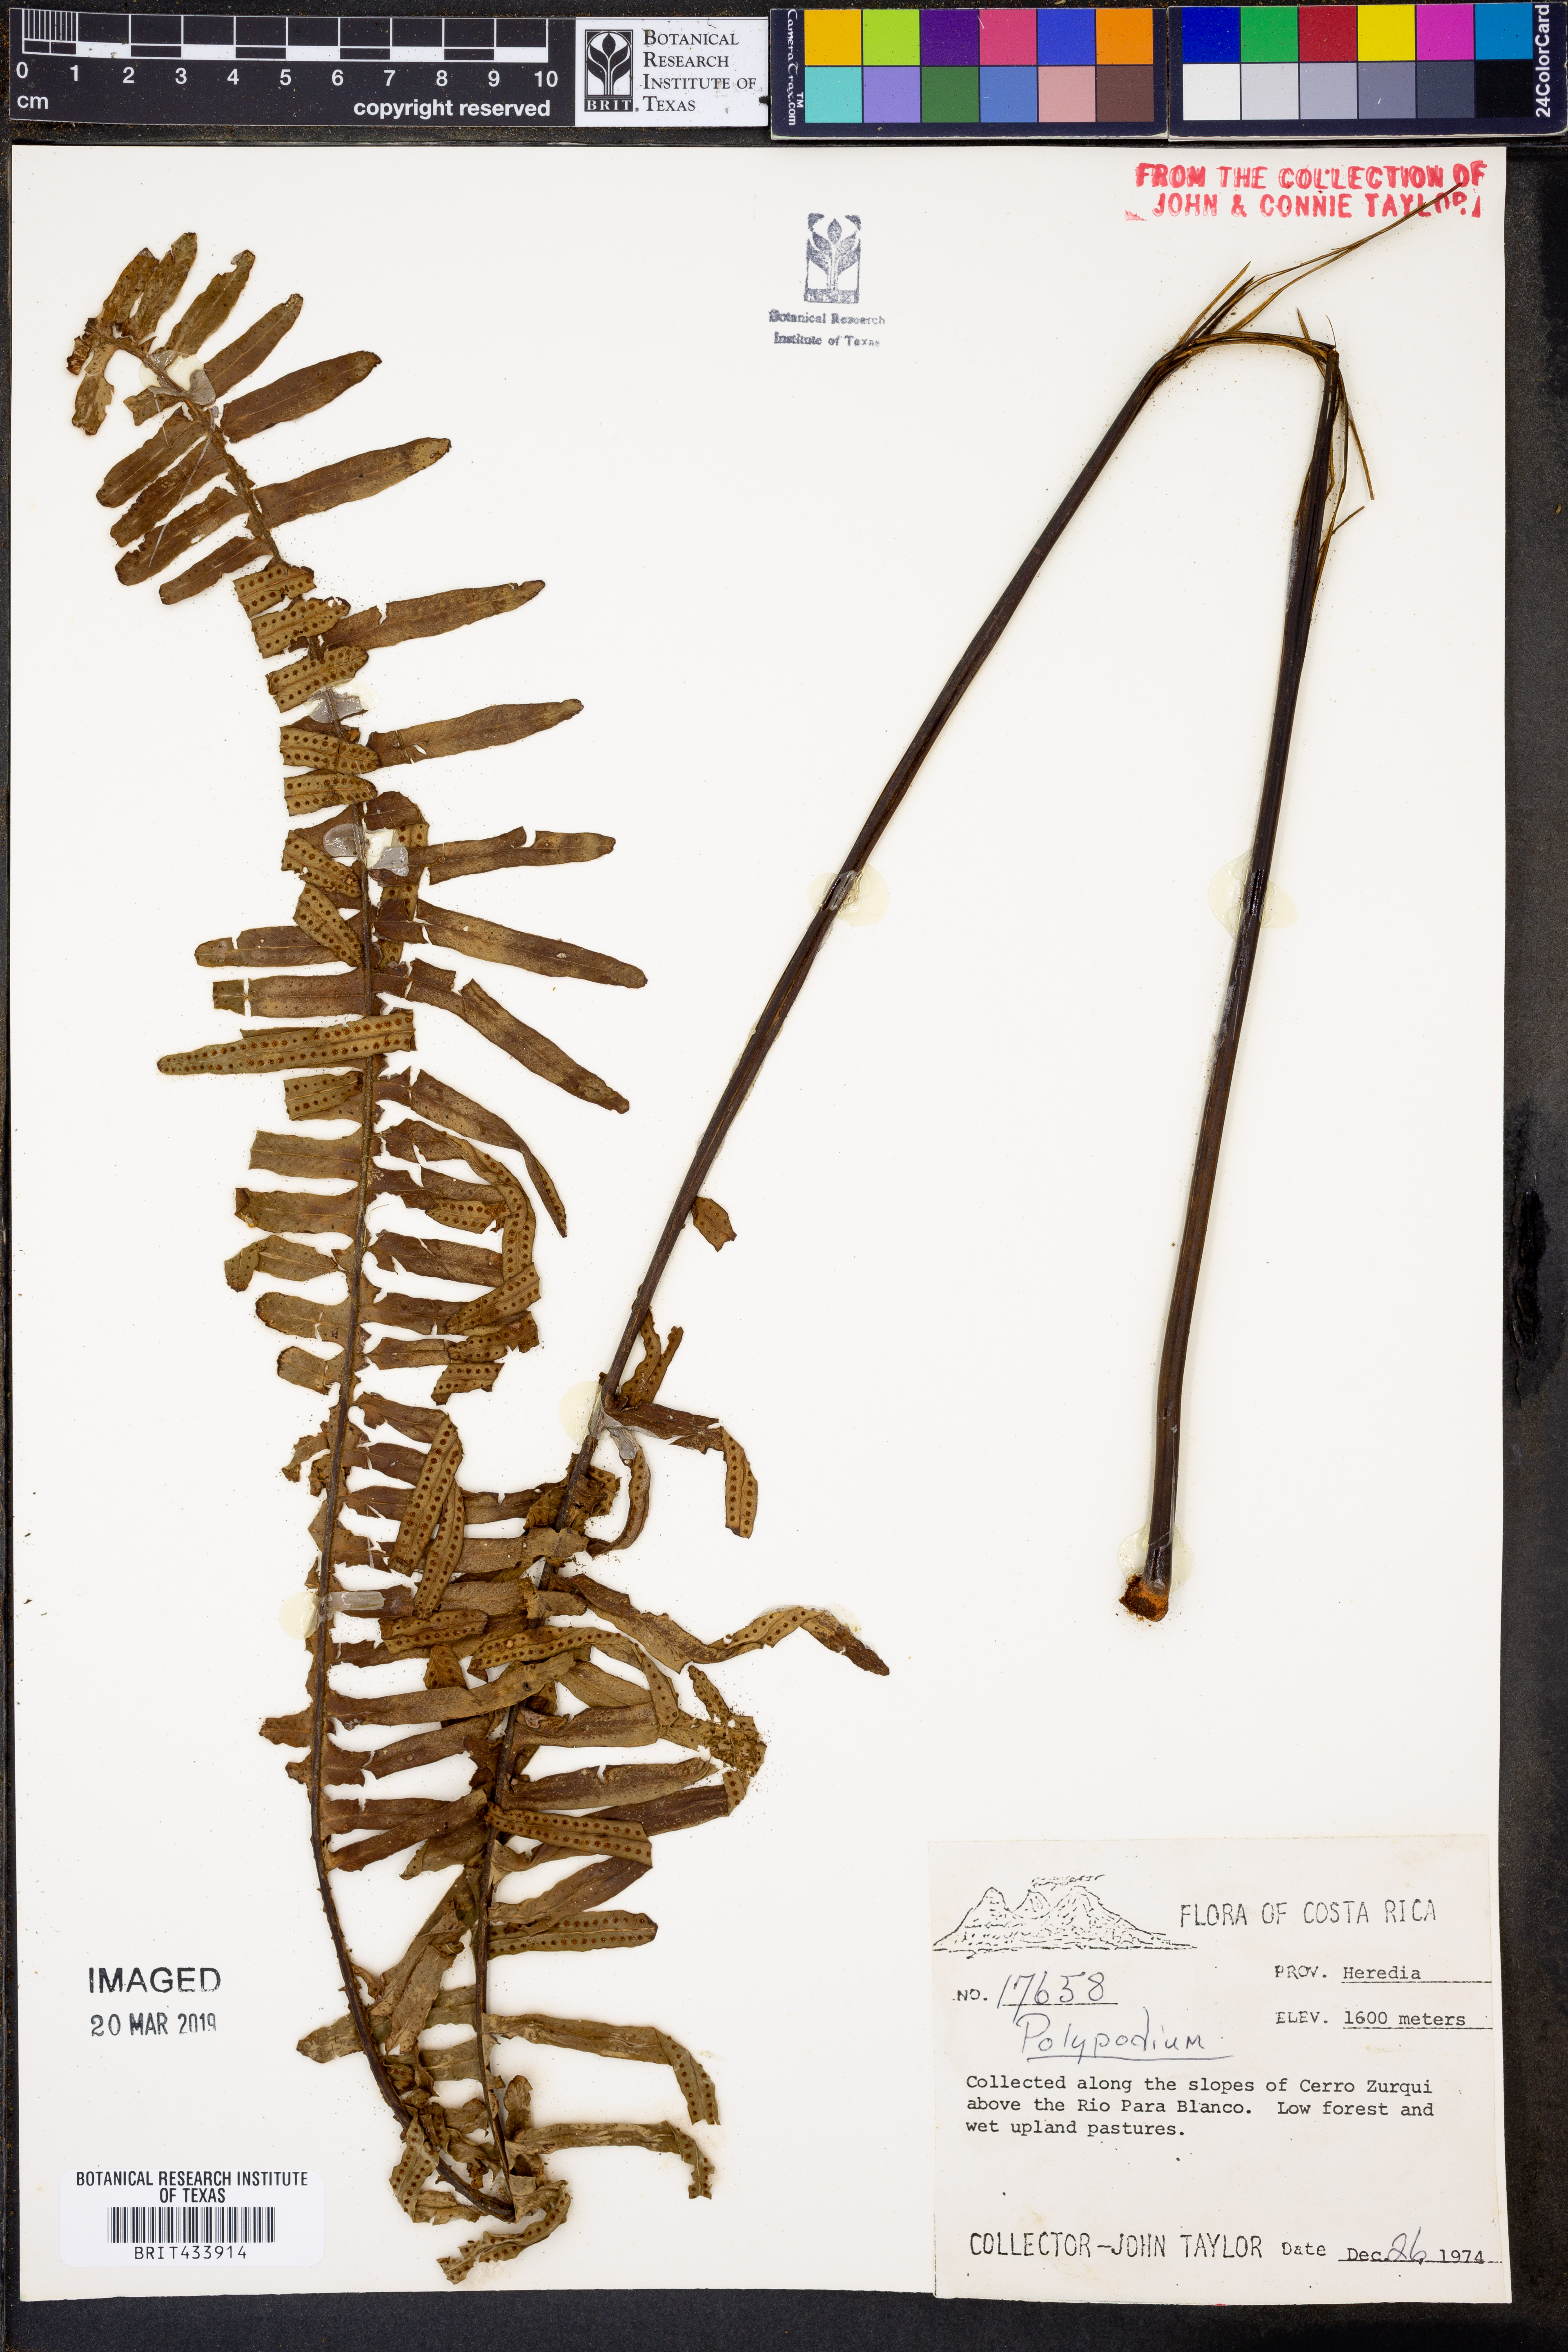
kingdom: Plantae
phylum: Tracheophyta
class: Polypodiopsida
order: Polypodiales
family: Polypodiaceae
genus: Polypodium
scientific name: Polypodium
